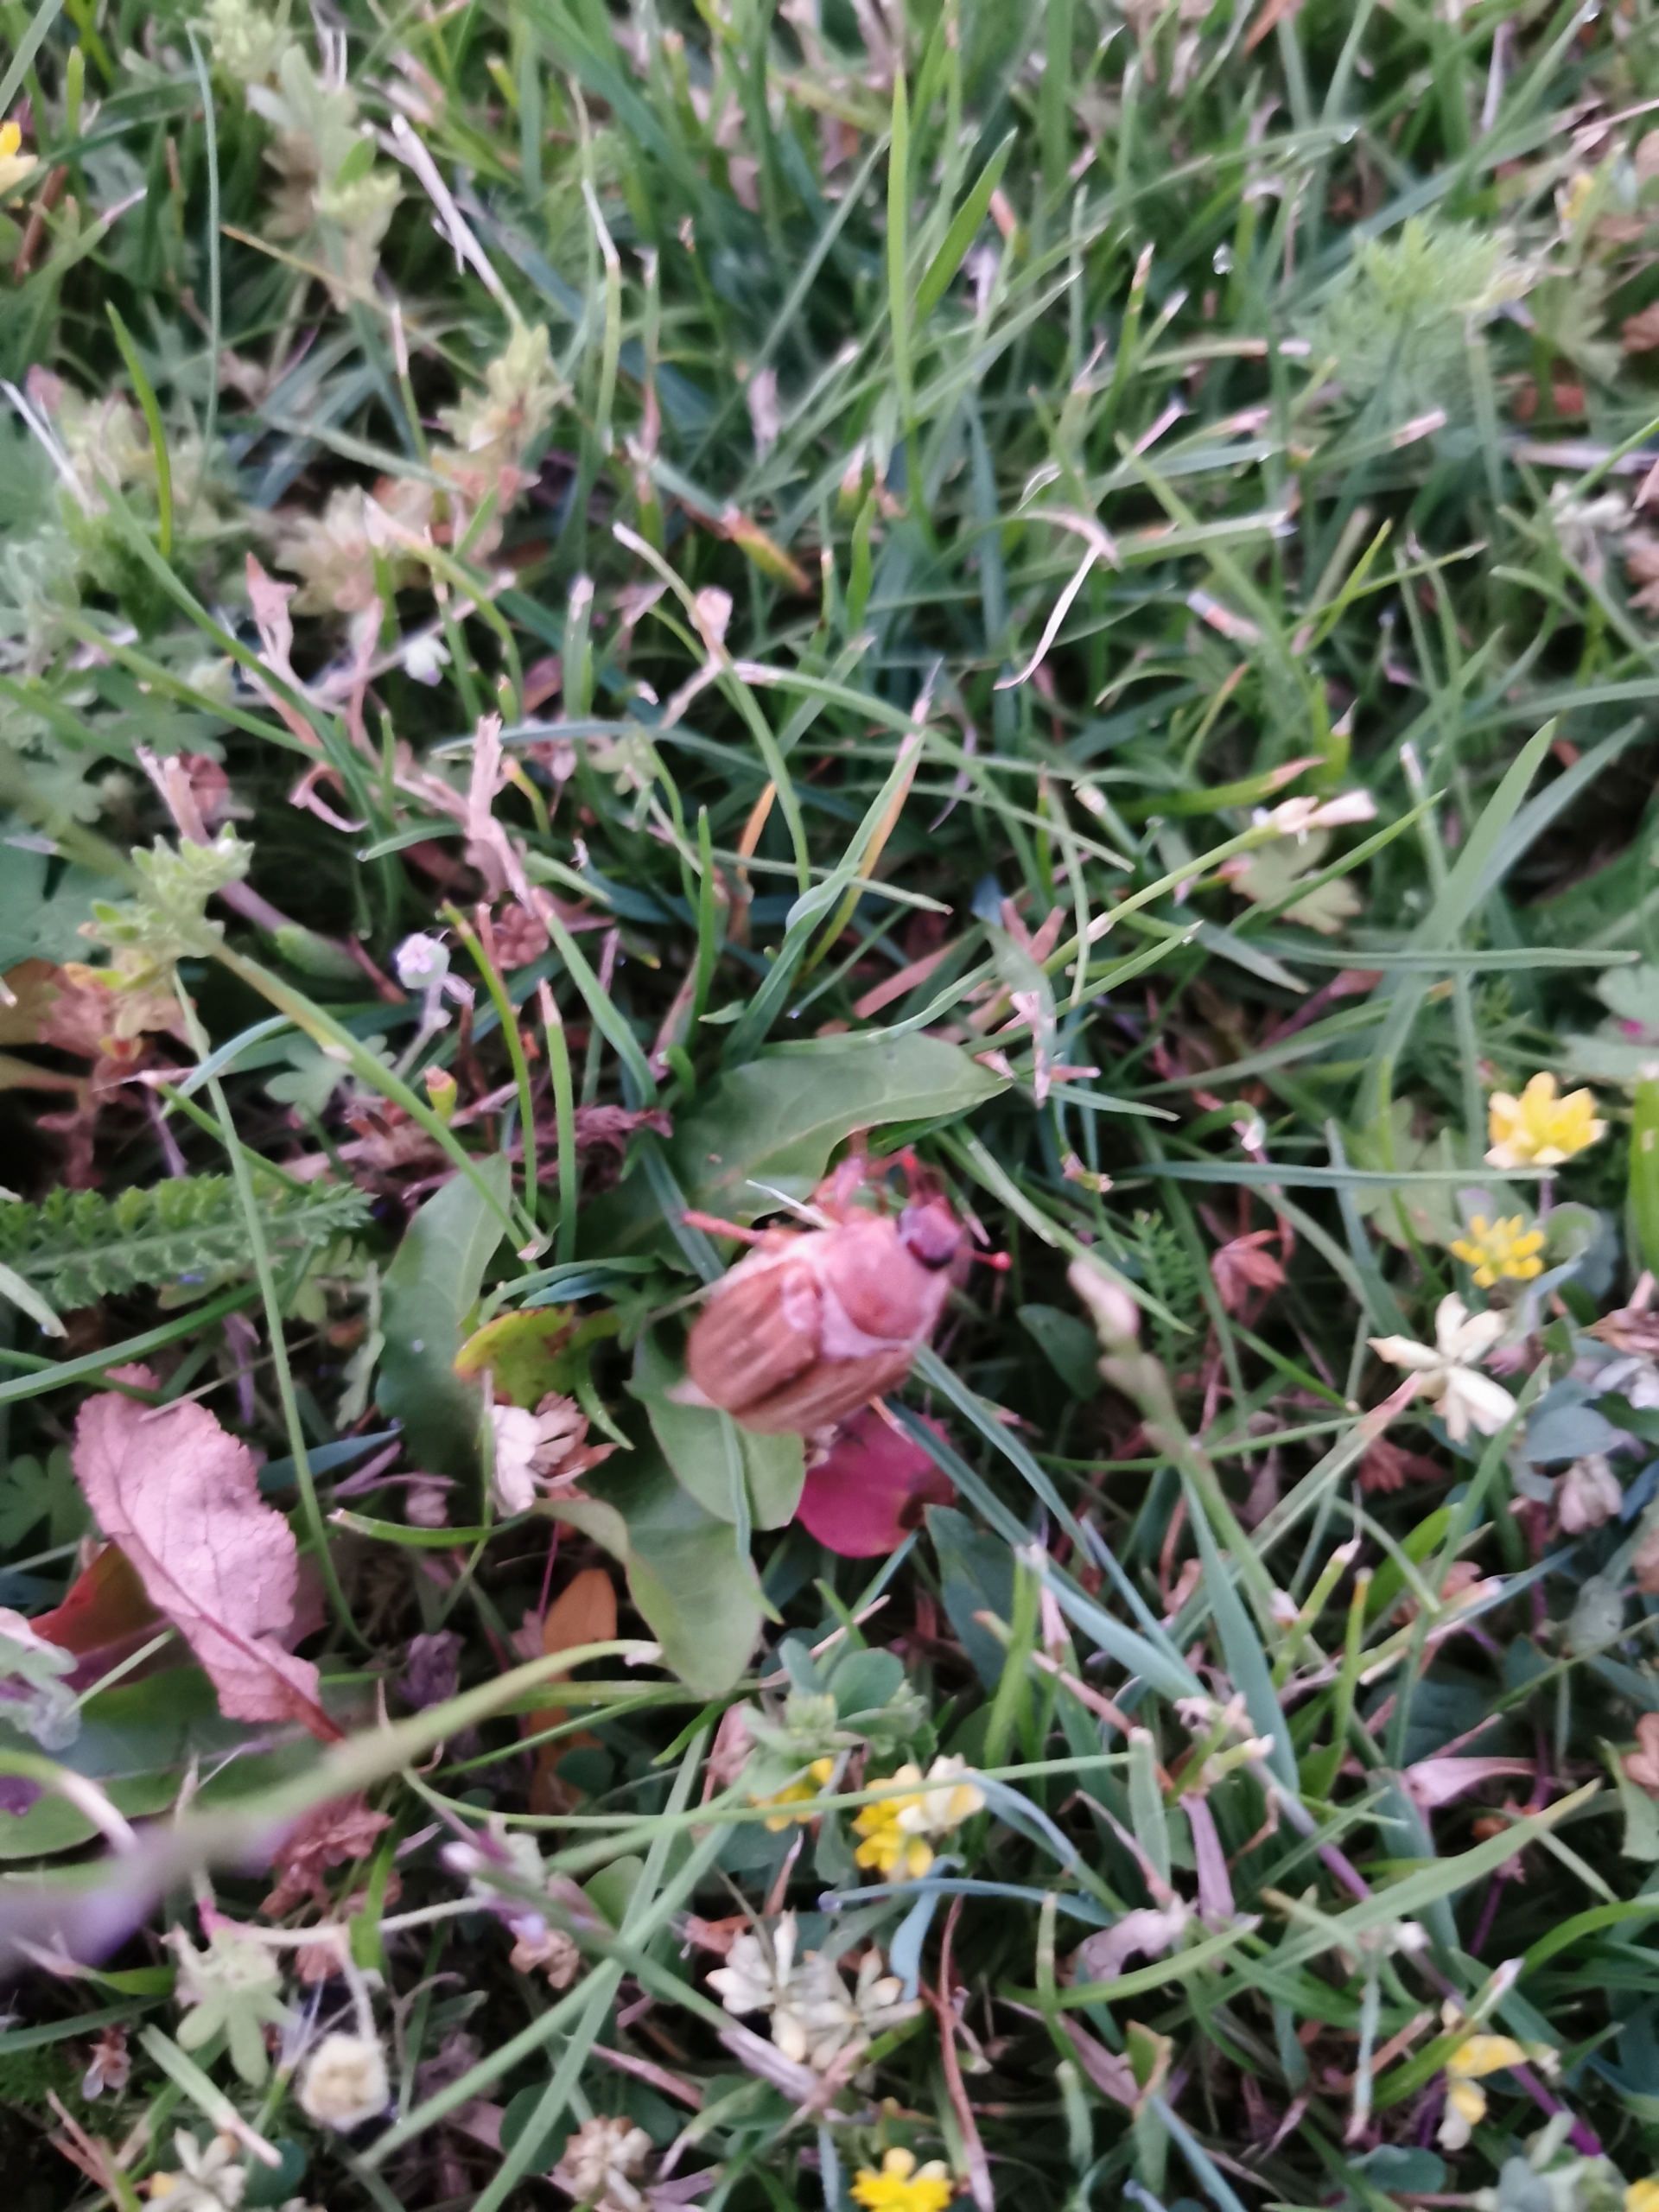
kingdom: Animalia
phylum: Arthropoda
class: Insecta
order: Coleoptera
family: Scarabaeidae
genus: Amphimallon
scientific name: Amphimallon solstitiale
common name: Sankthansoldenborre
